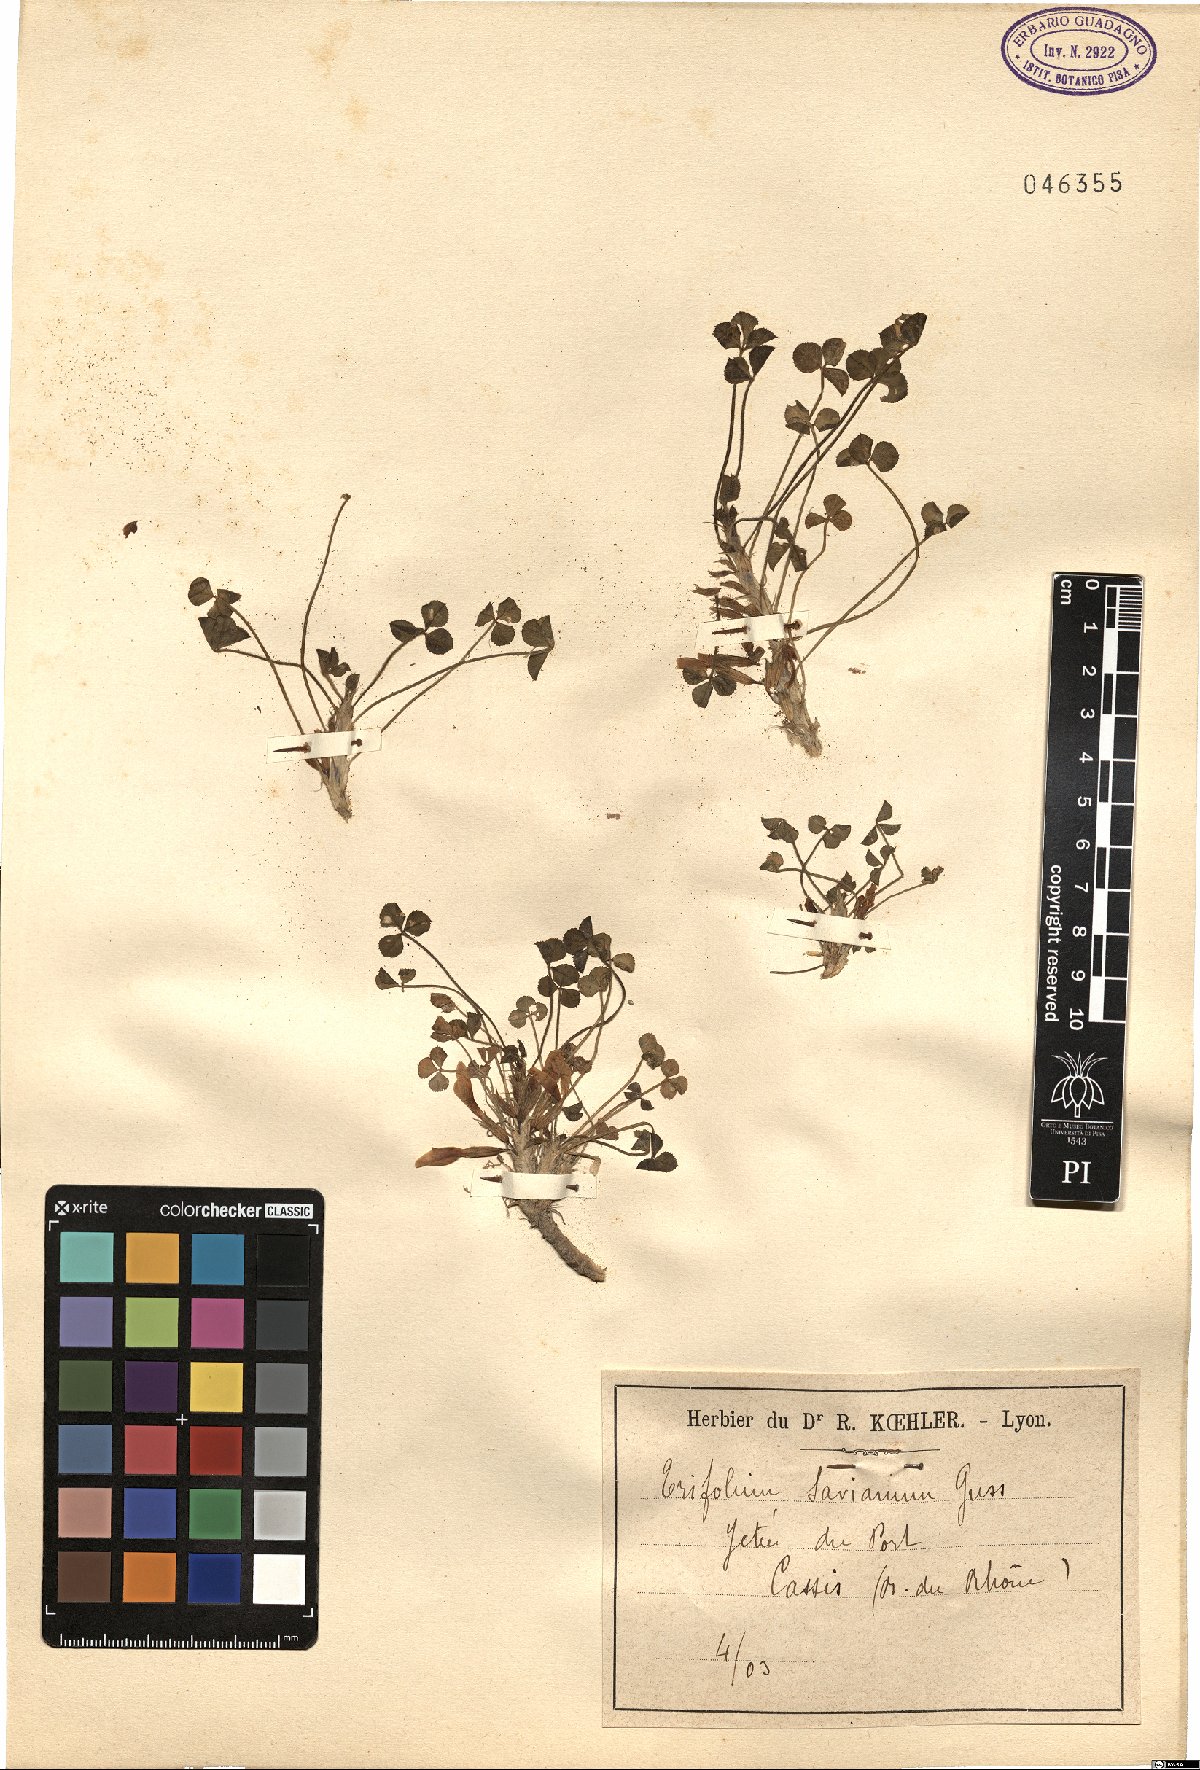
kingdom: Plantae
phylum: Tracheophyta
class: Magnoliopsida
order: Fabales
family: Fabaceae
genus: Trifolium
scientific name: Trifolium uniflorum
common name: One-flower clover
